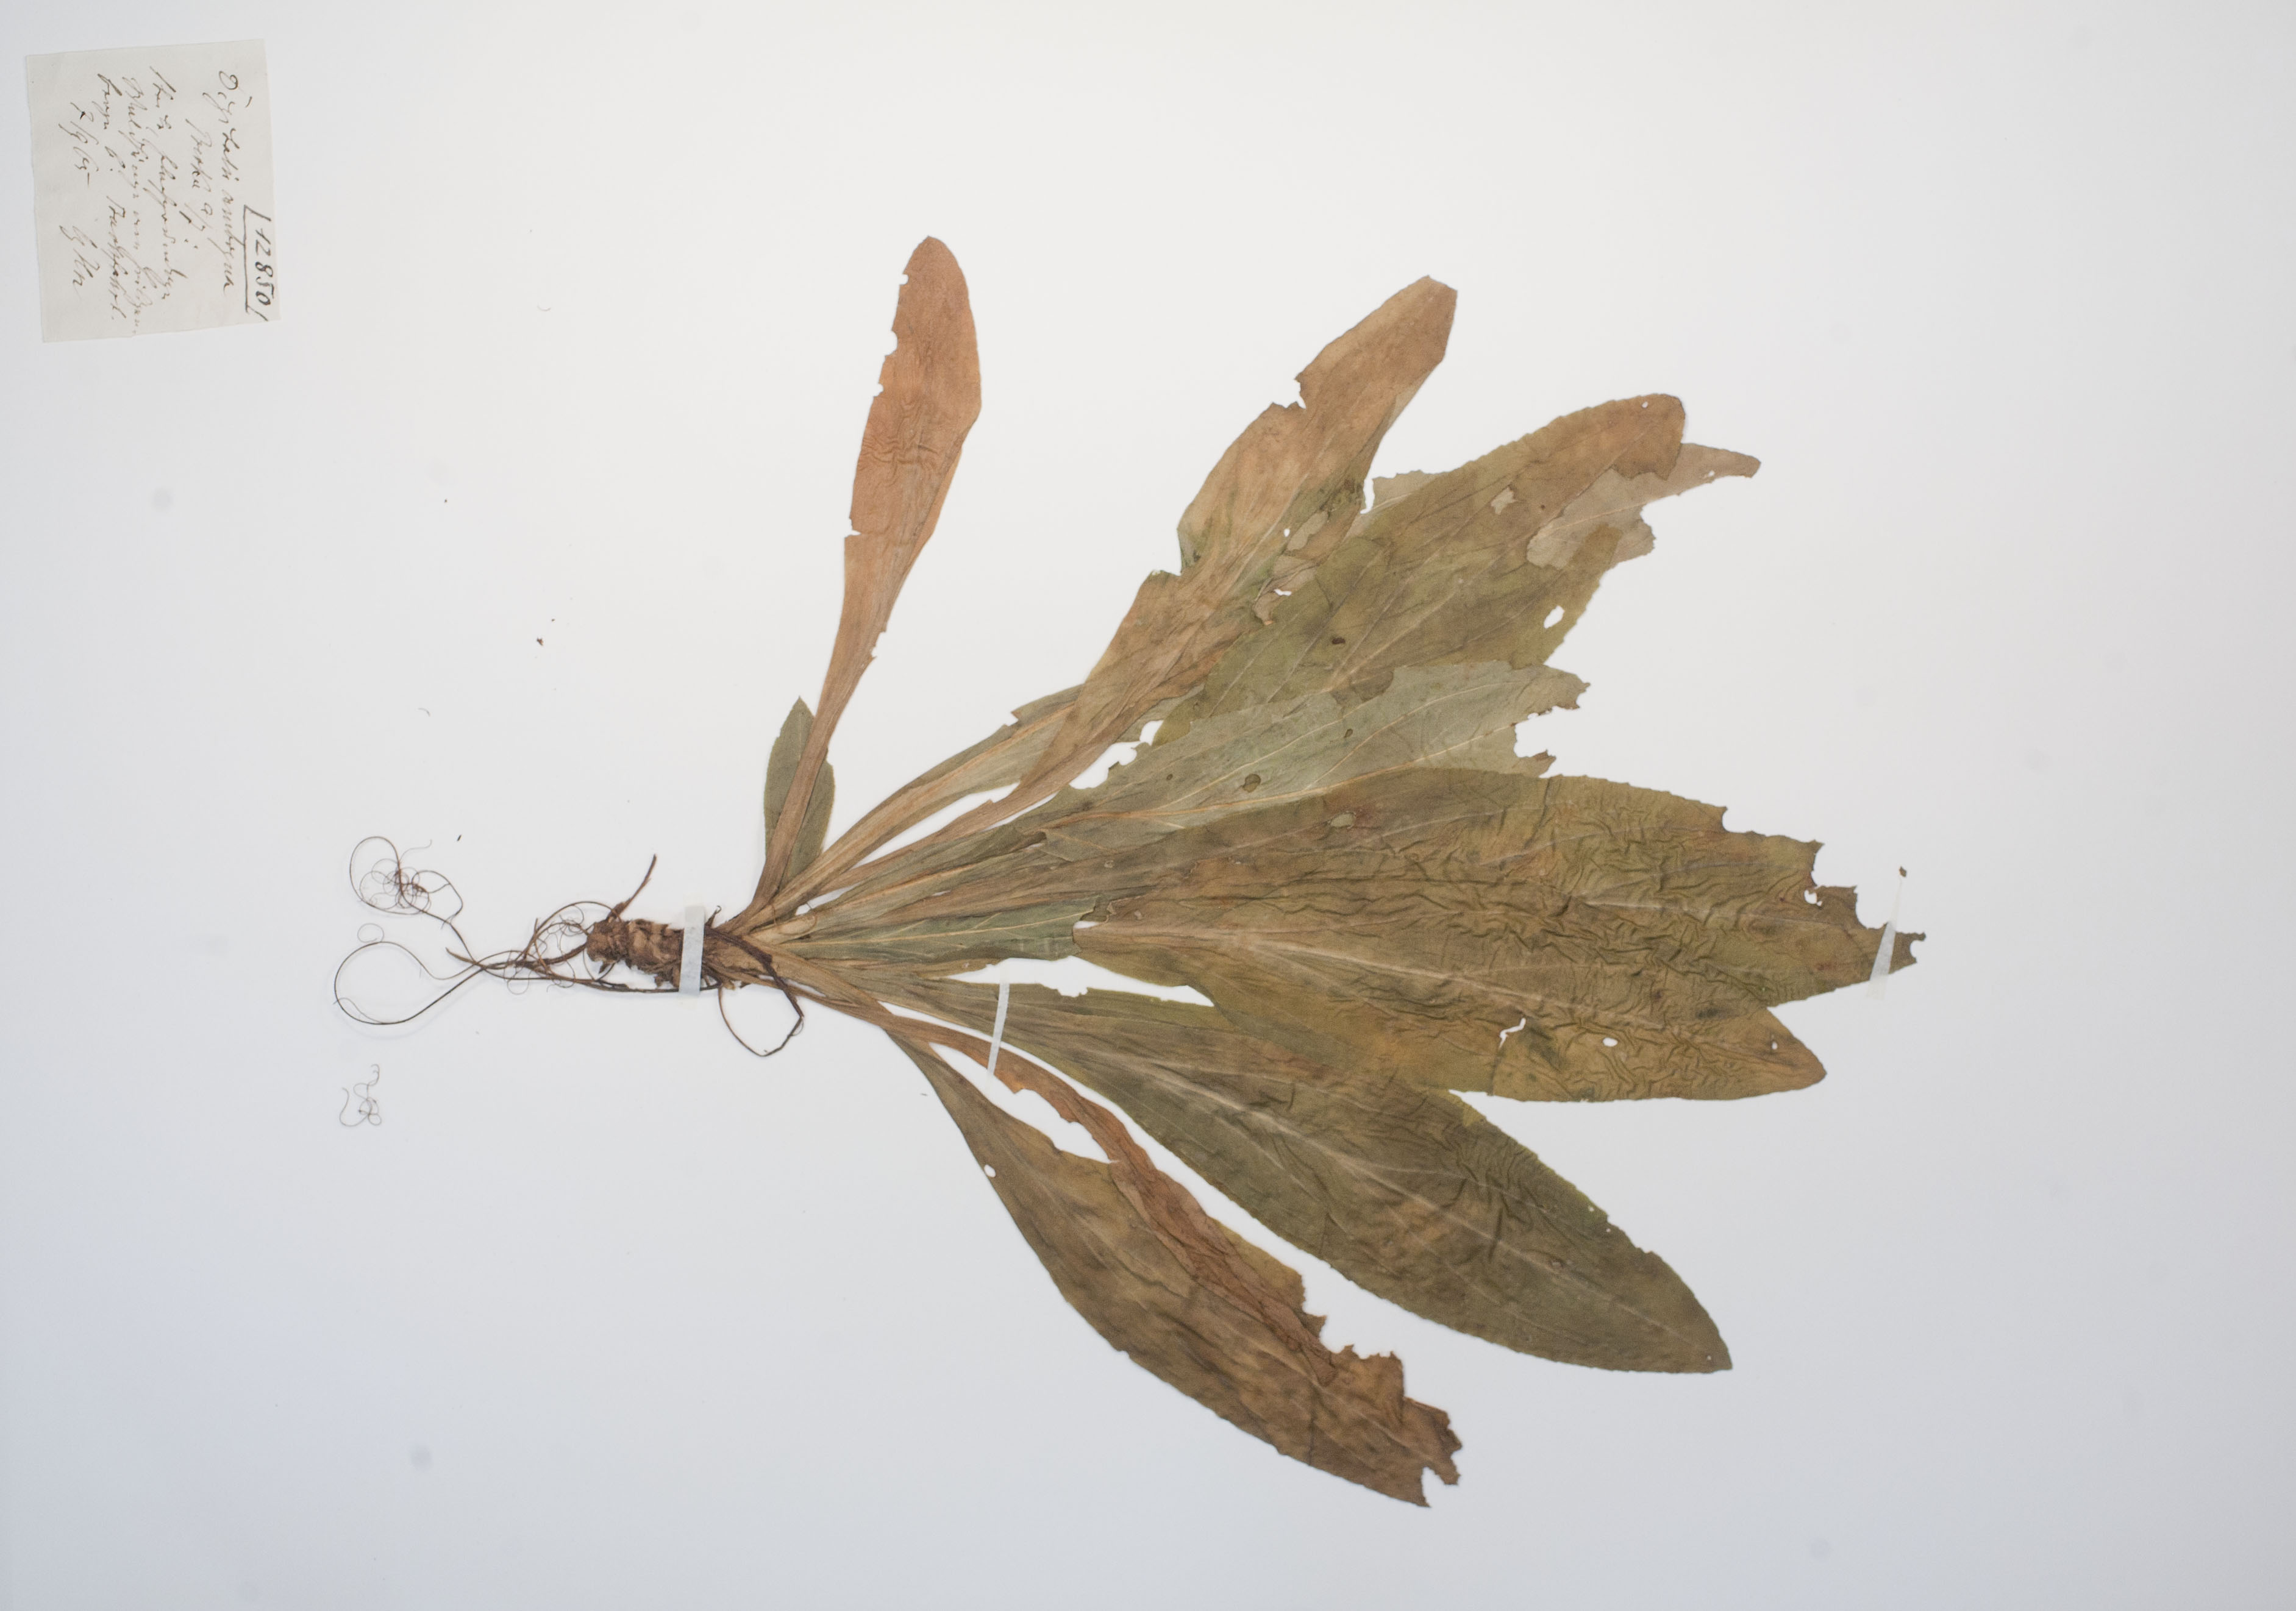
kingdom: Plantae
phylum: Tracheophyta
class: Magnoliopsida
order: Lamiales
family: Plantaginaceae
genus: Digitalis
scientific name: Digitalis grandiflora
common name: Yellow foxglove
